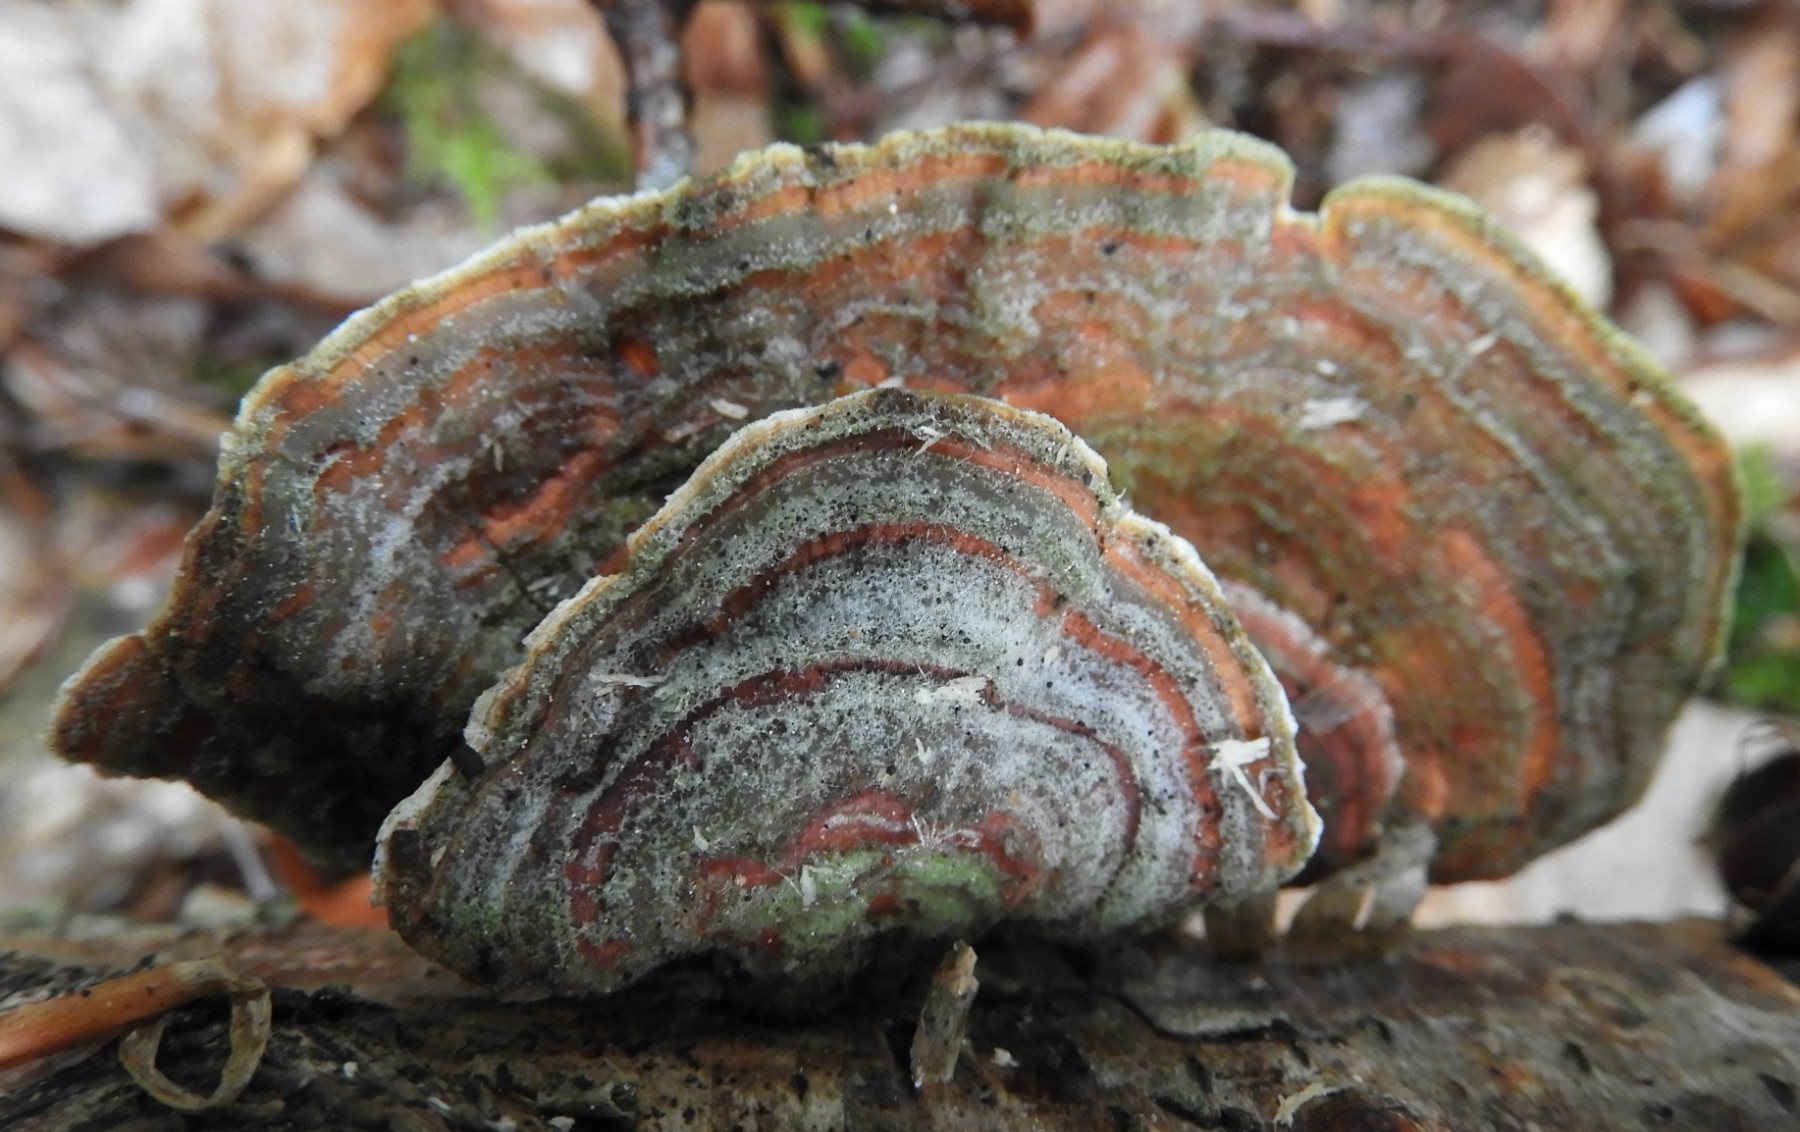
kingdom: Fungi
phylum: Basidiomycota
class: Agaricomycetes
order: Russulales
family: Stereaceae
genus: Stereum
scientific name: Stereum subtomentosum
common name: smuk lædersvamp
